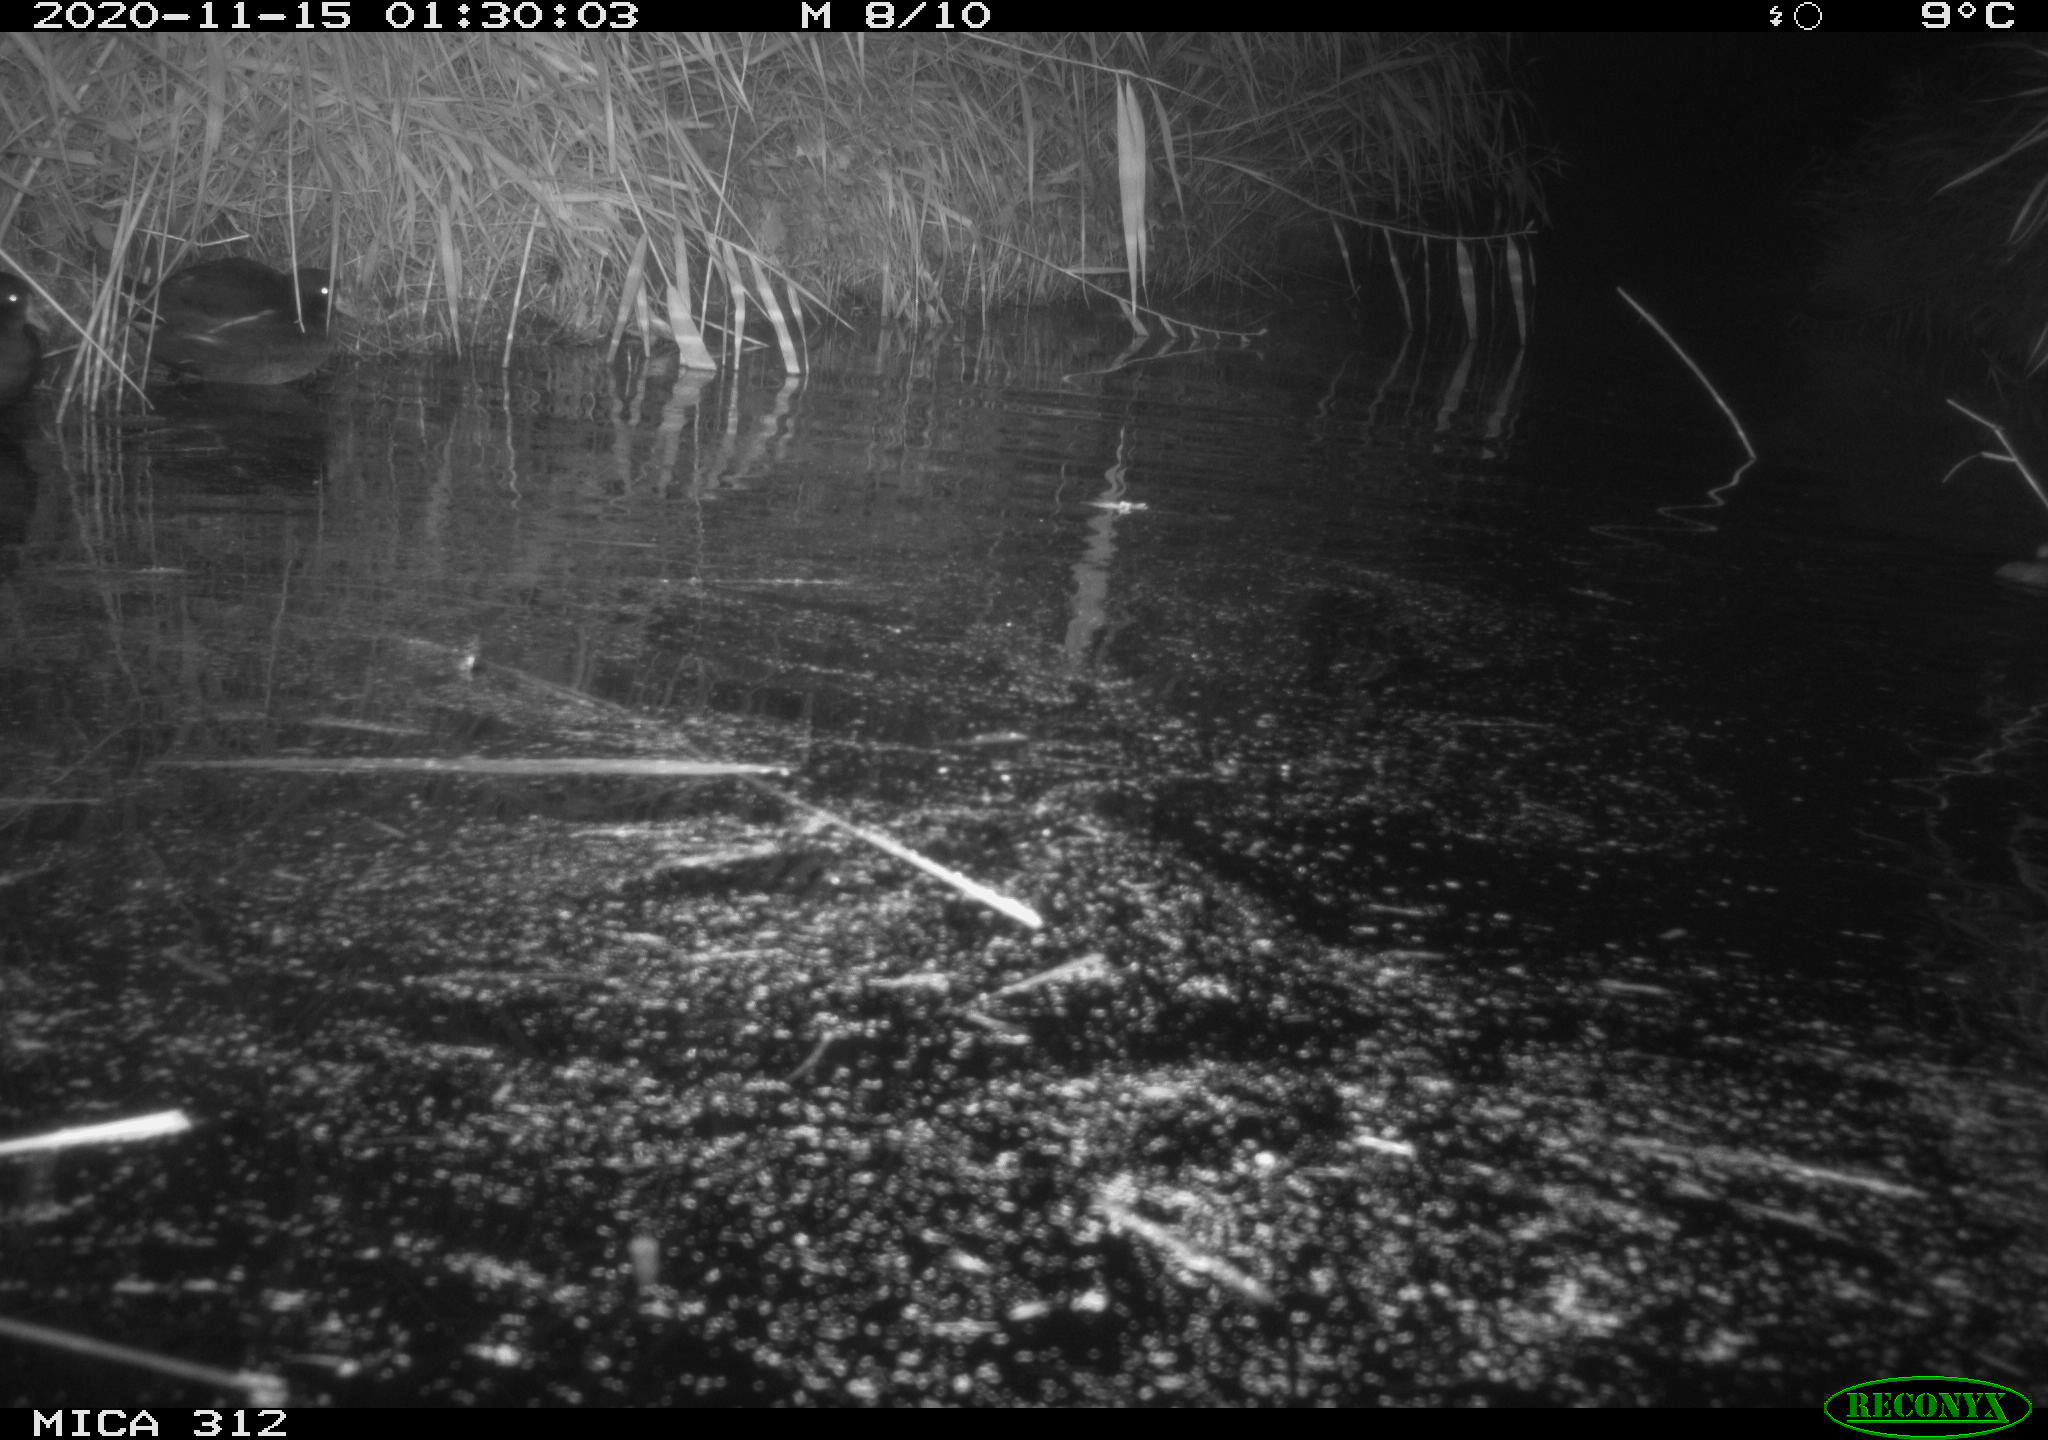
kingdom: Animalia
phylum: Chordata
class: Mammalia
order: Rodentia
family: Muridae
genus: Rattus
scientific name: Rattus norvegicus
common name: Brown rat
